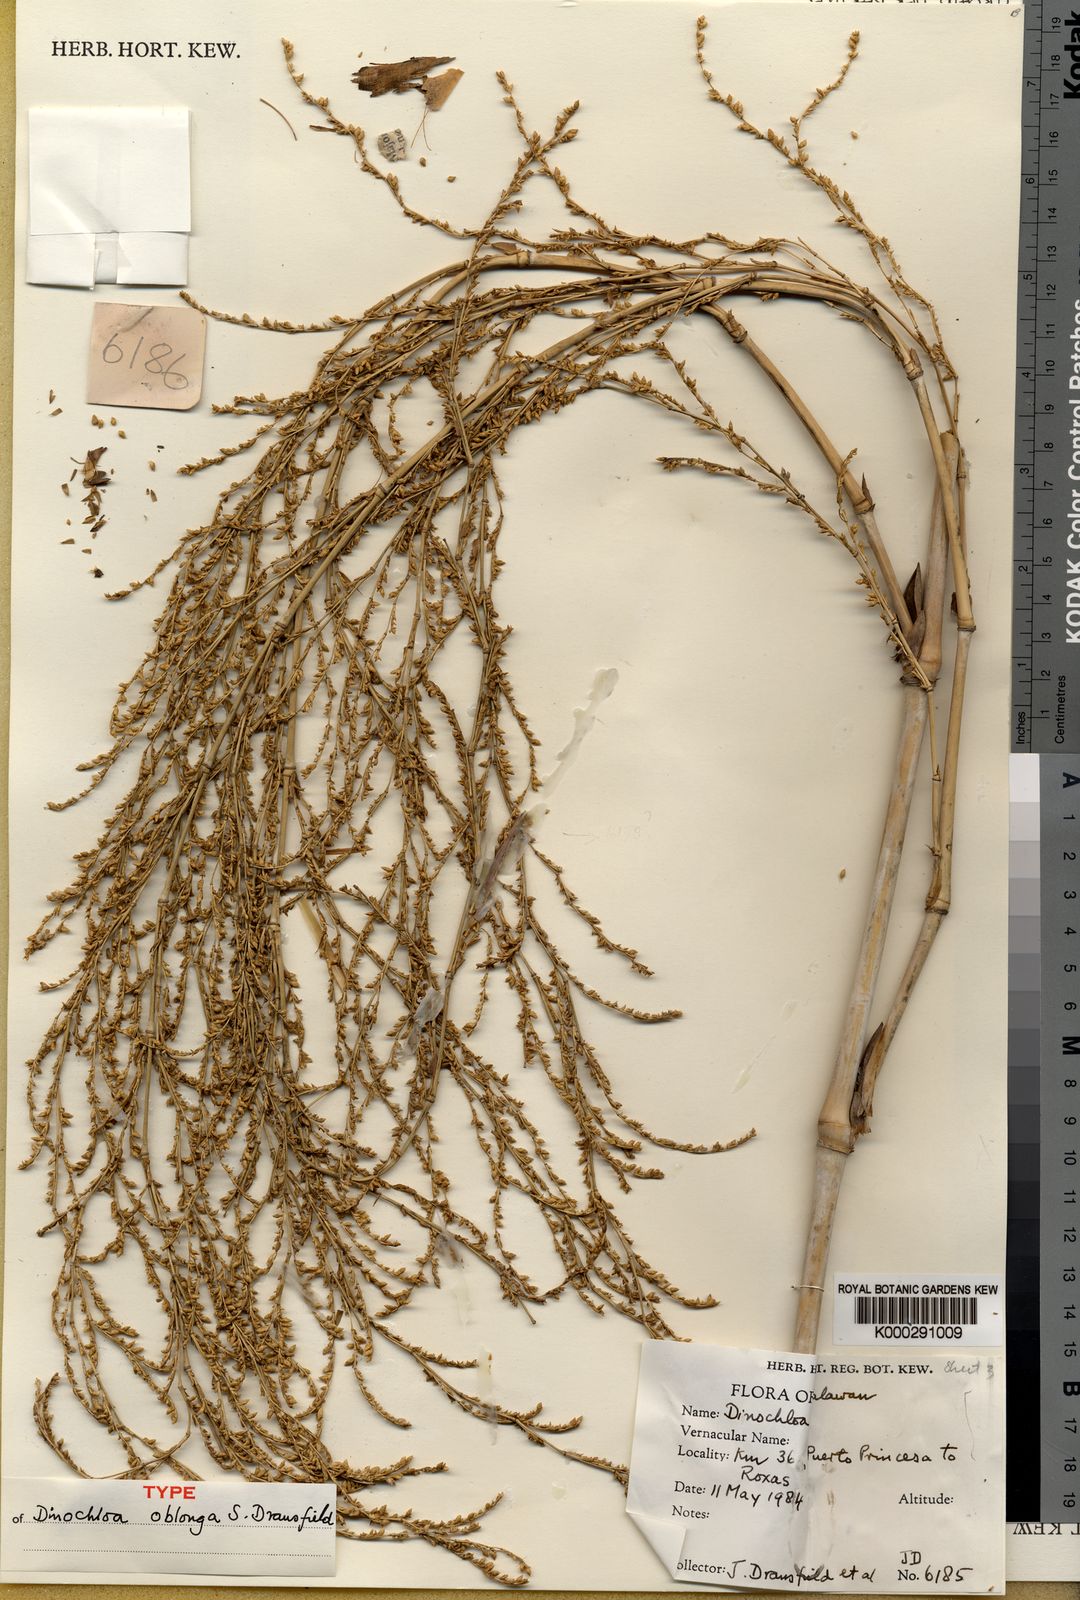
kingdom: Plantae
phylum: Tracheophyta
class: Liliopsida
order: Poales
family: Poaceae
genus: Dinochloa
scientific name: Dinochloa oblonga
